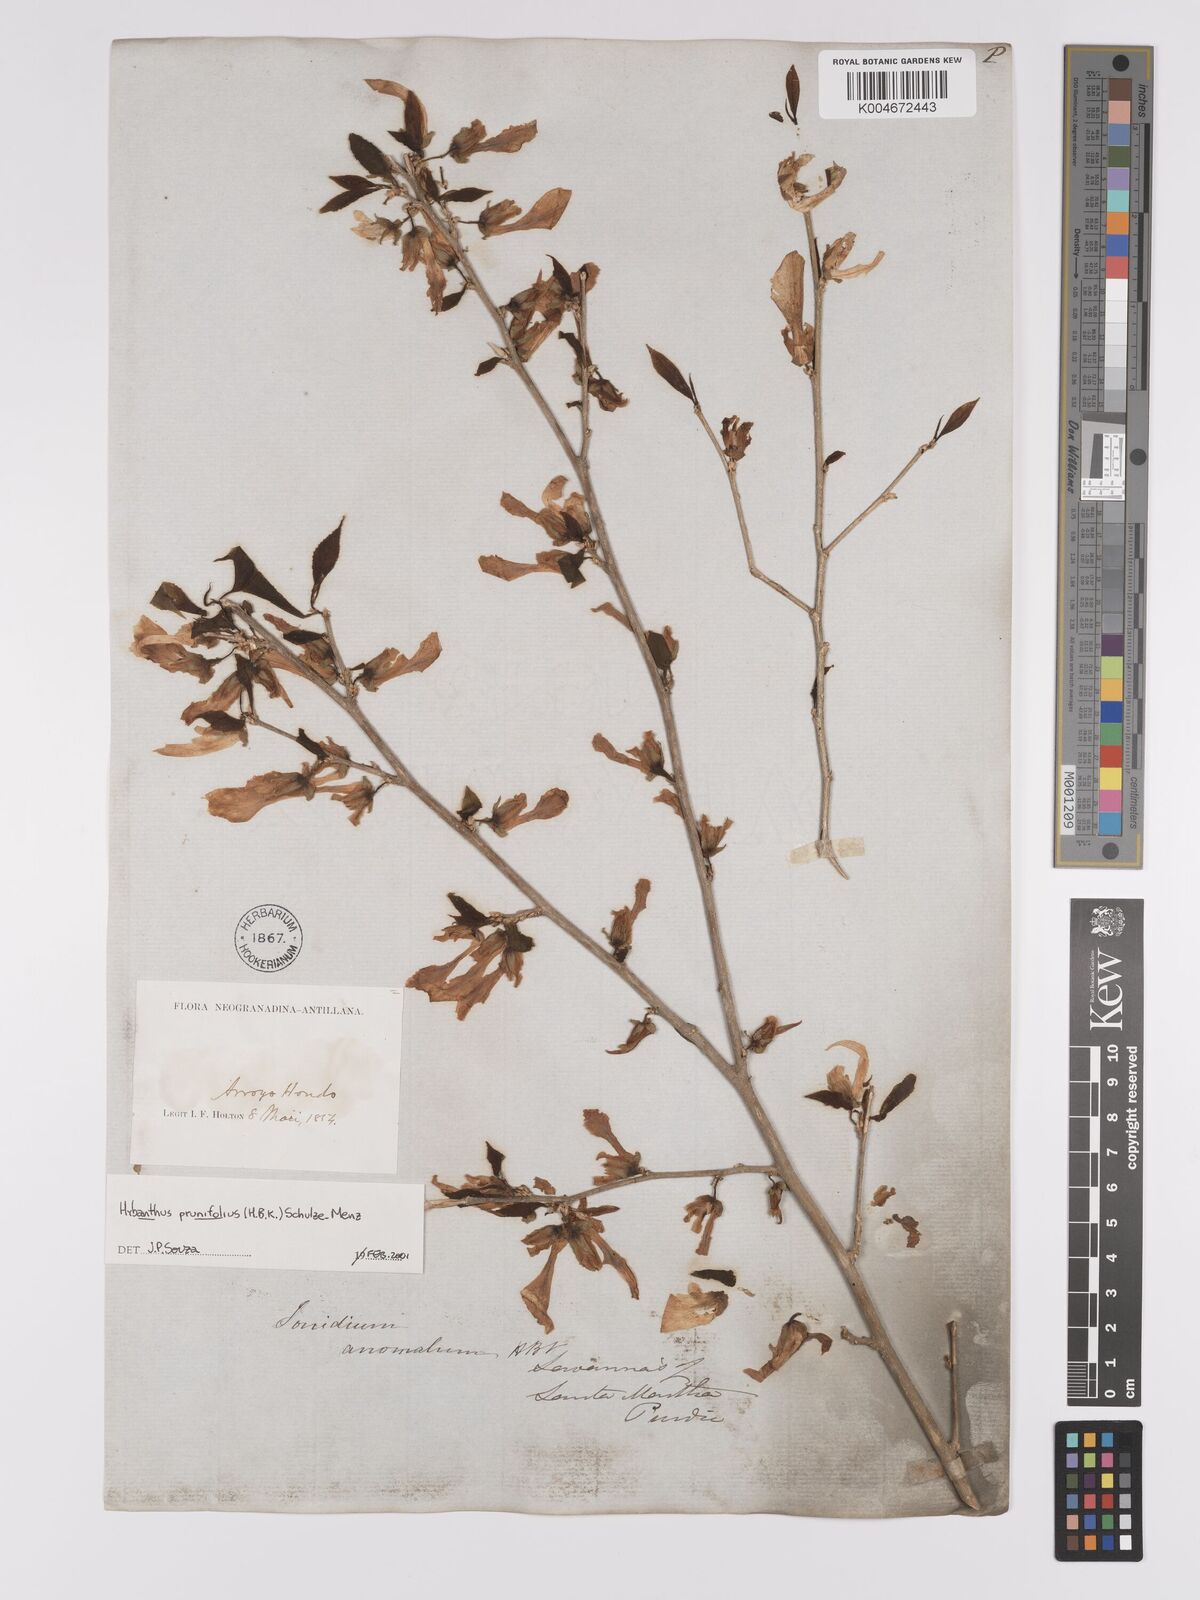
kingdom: Plantae
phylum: Tracheophyta
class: Magnoliopsida
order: Malpighiales
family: Violaceae
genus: Pombalia
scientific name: Pombalia prunifolia
